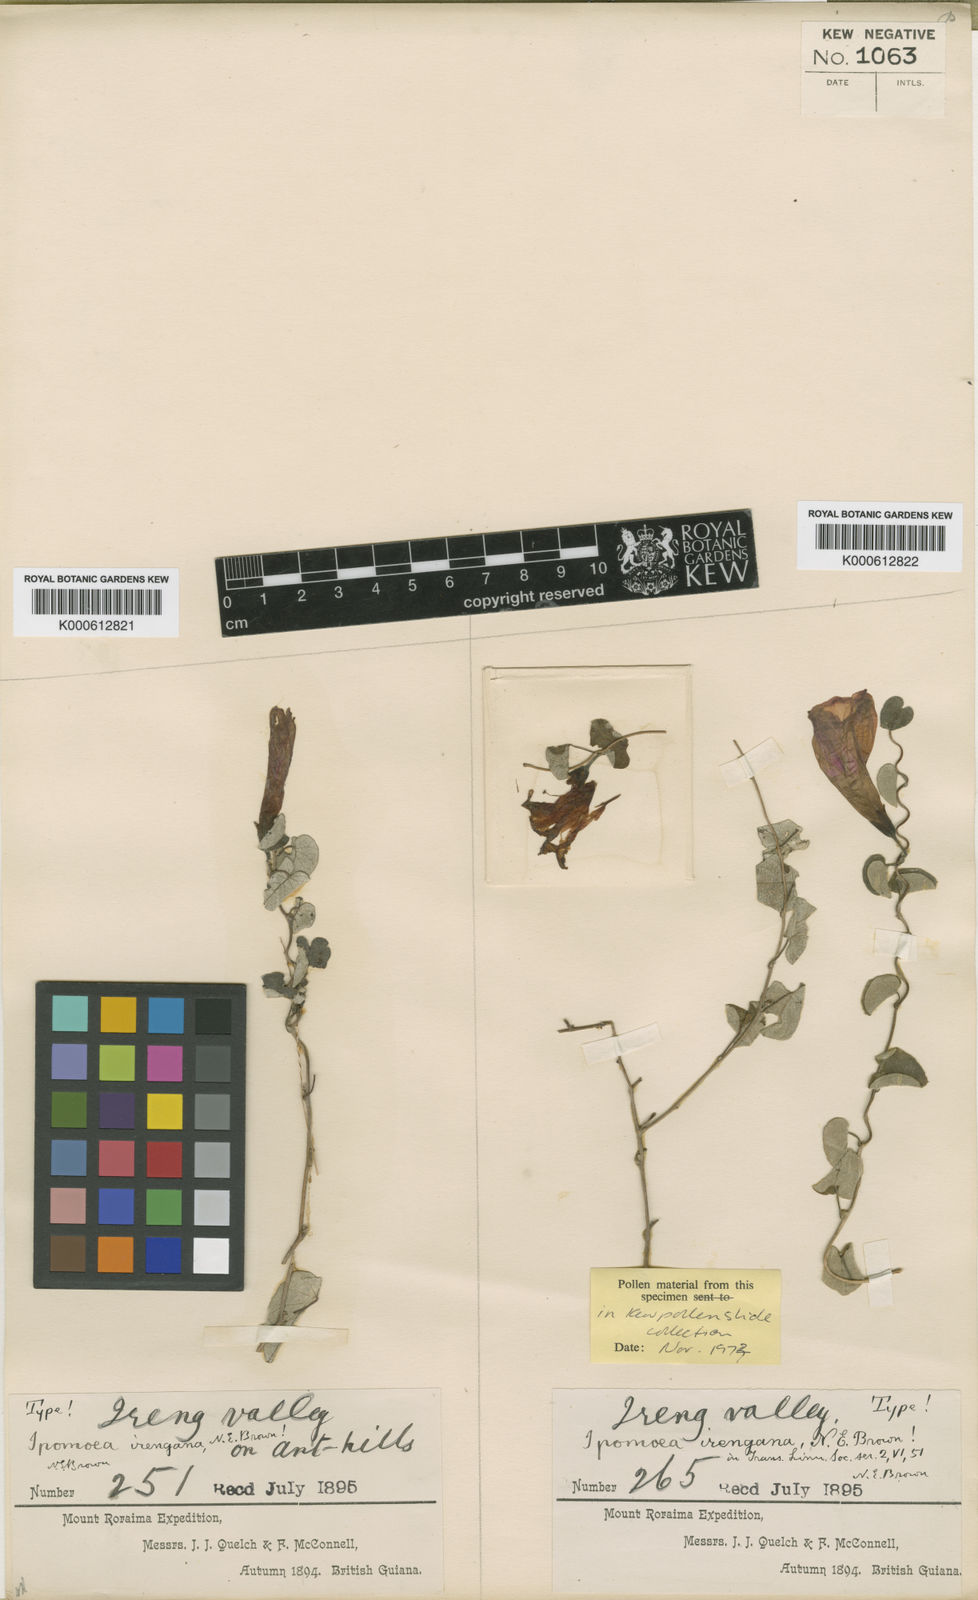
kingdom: Plantae
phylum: Tracheophyta
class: Magnoliopsida
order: Solanales
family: Convolvulaceae
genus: Ipomoea
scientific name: Ipomoea discolor
